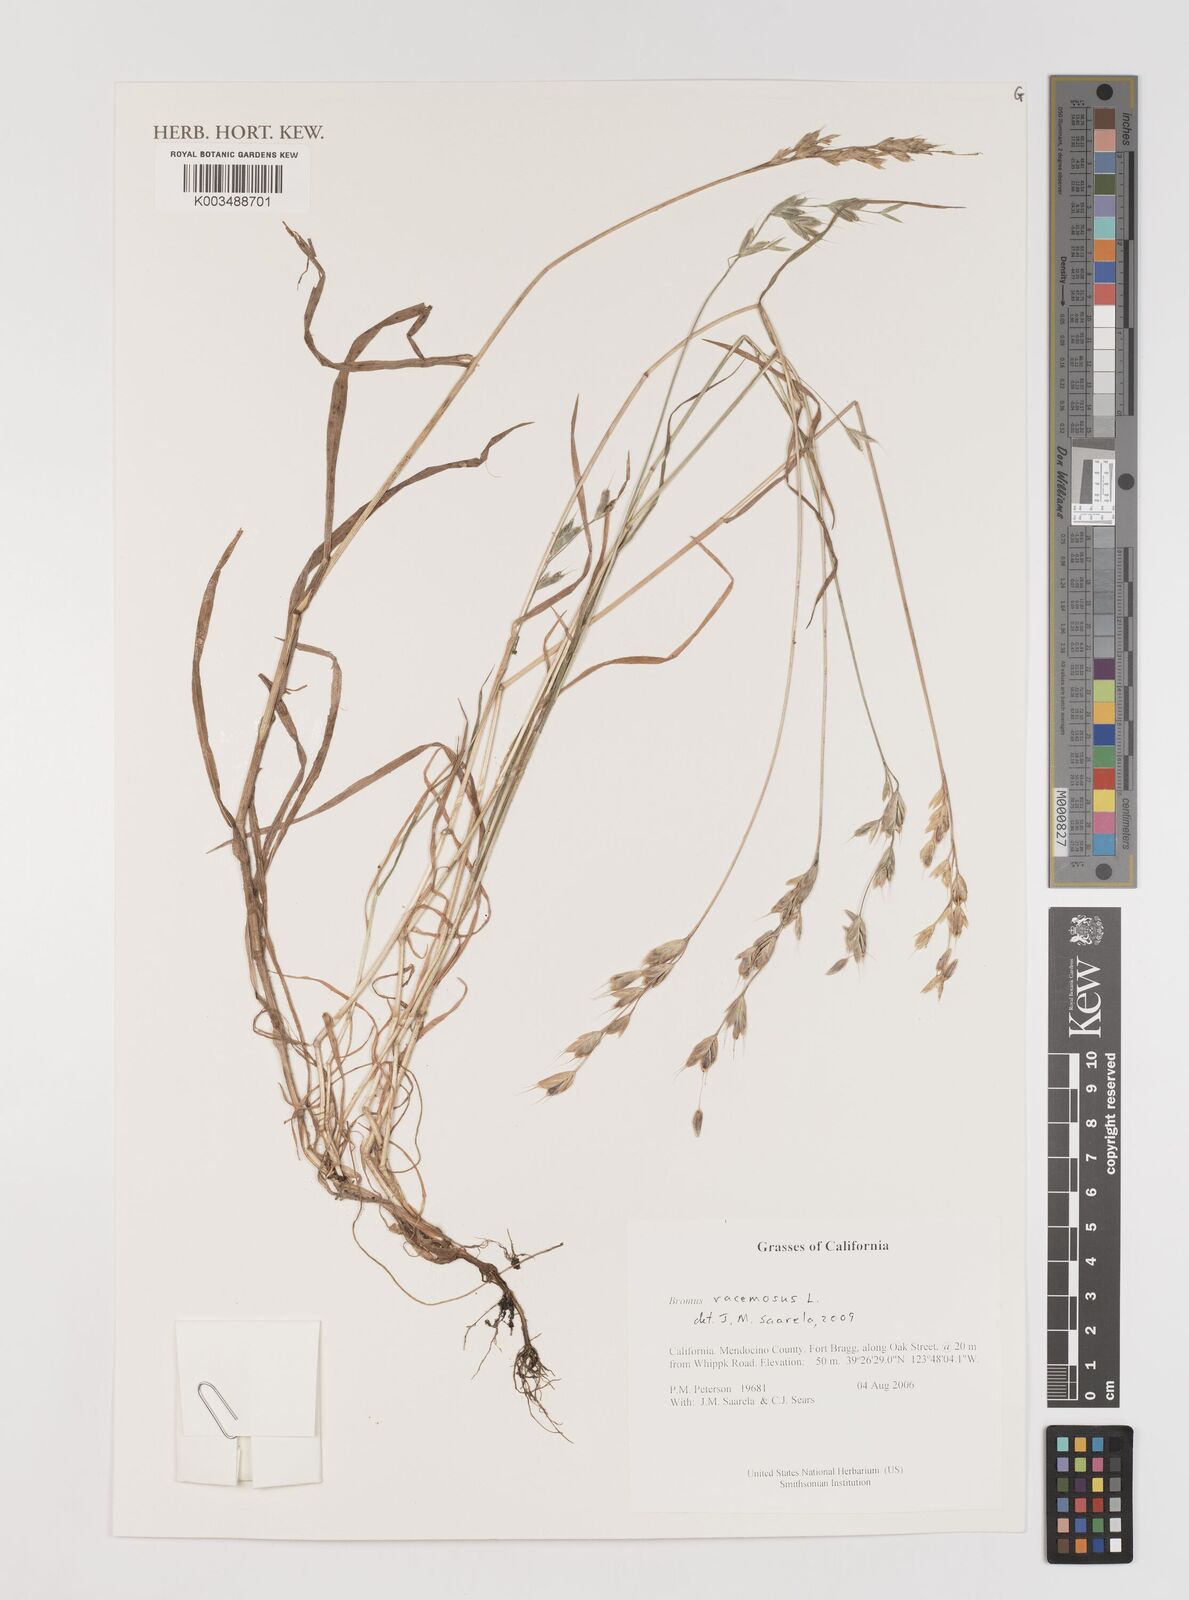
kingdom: Plantae
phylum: Tracheophyta
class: Liliopsida
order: Poales
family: Poaceae
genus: Bromus
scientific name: Bromus racemosus
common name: Bald brome
